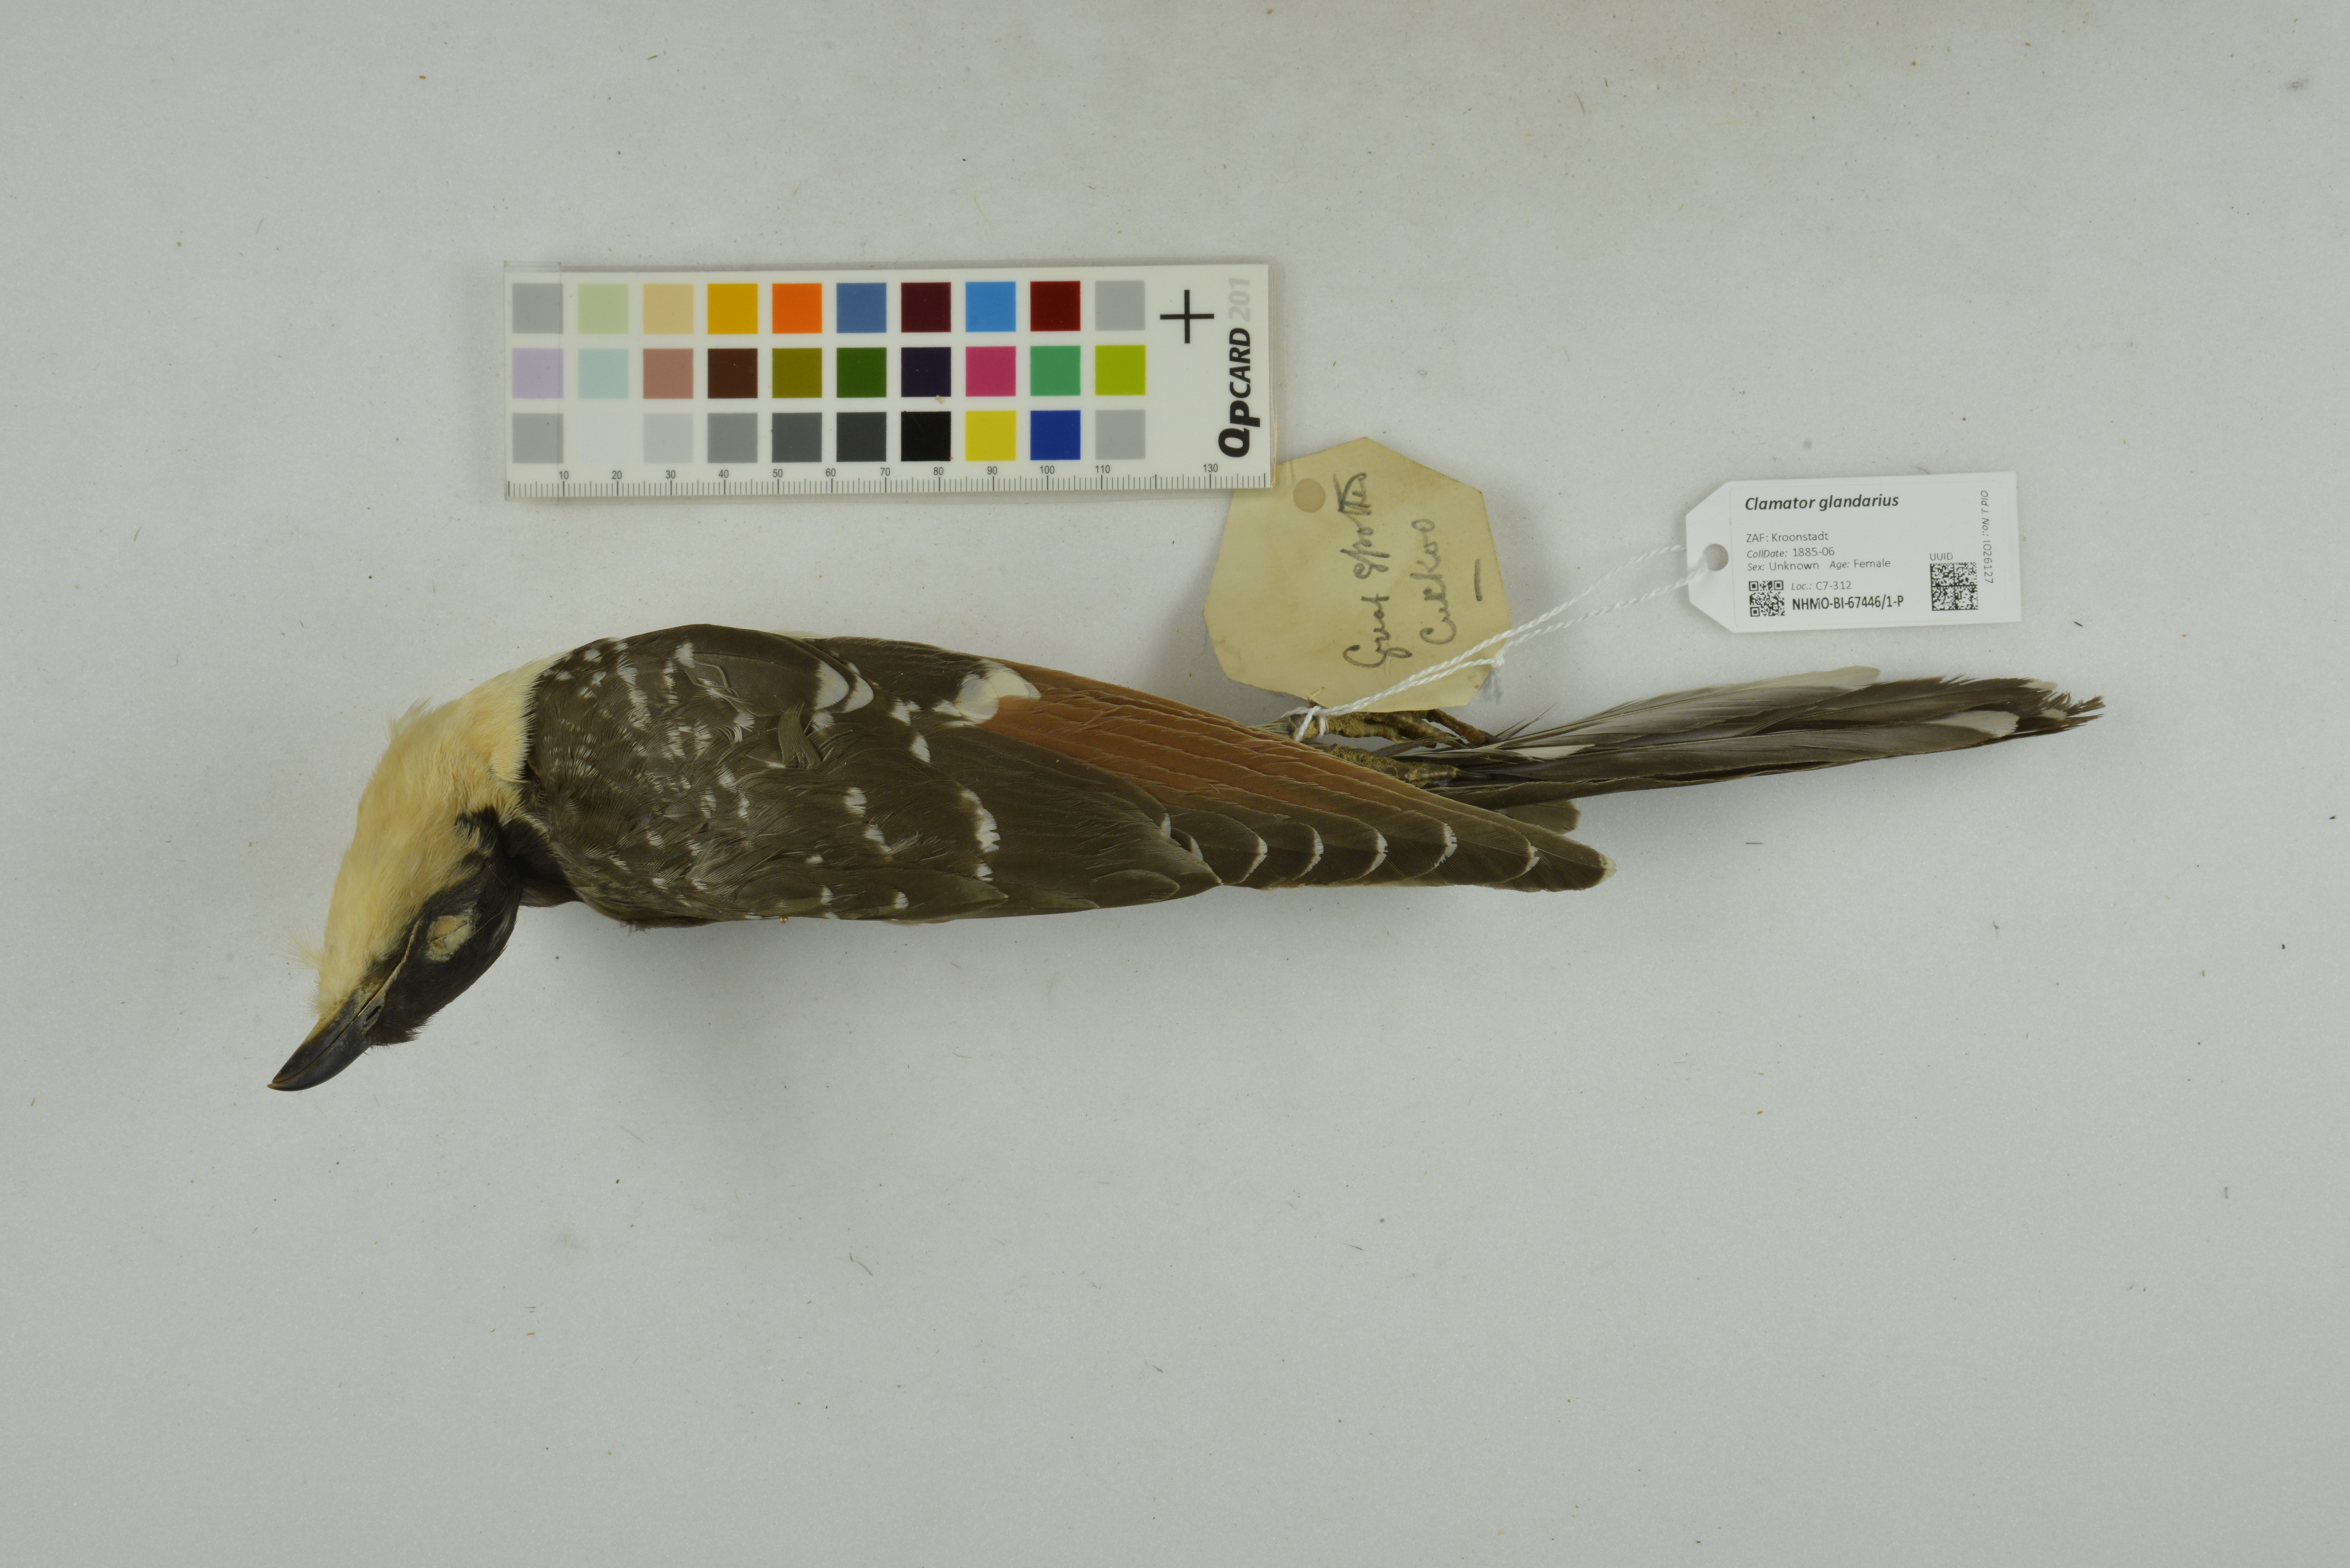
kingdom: Animalia
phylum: Chordata
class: Aves
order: Cuculiformes
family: Cuculidae
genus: Clamator
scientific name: Clamator glandarius
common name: Great spotted cuckoo
